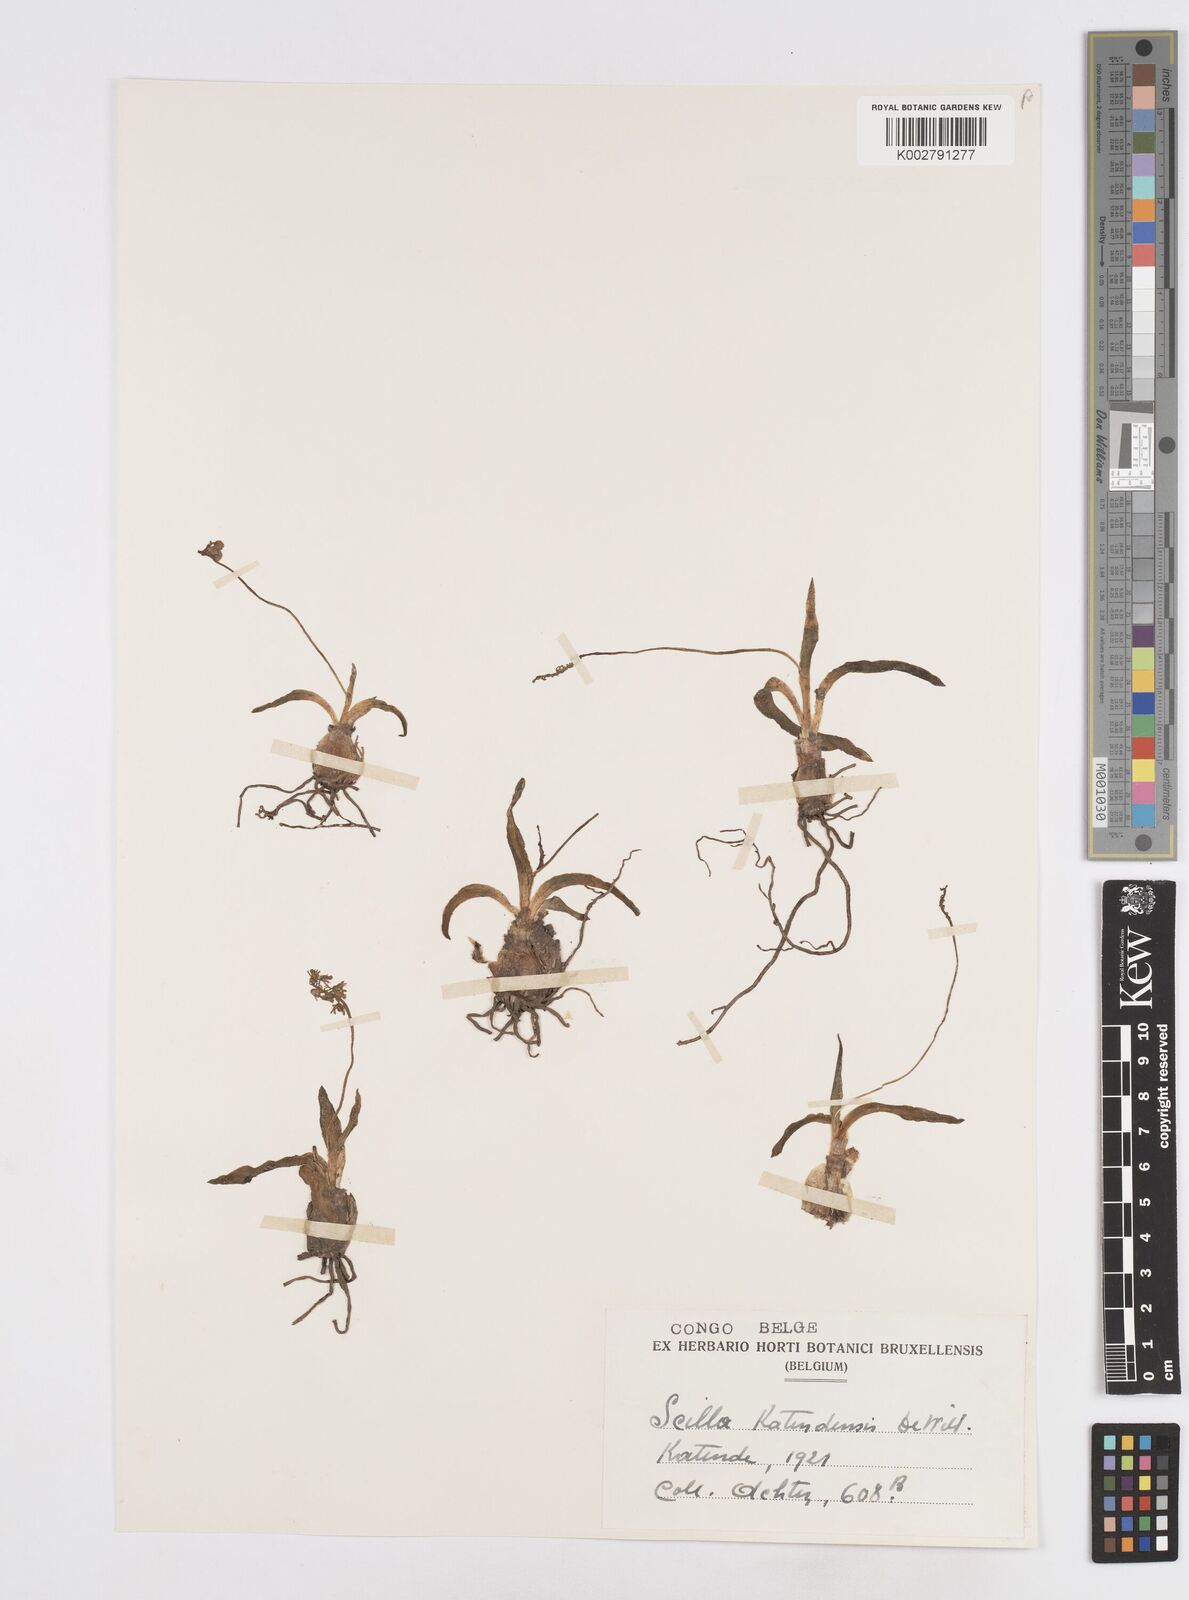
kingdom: Plantae
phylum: Tracheophyta
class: Liliopsida
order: Asparagales
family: Asparagaceae
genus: Scilla
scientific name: Scilla katendensis
